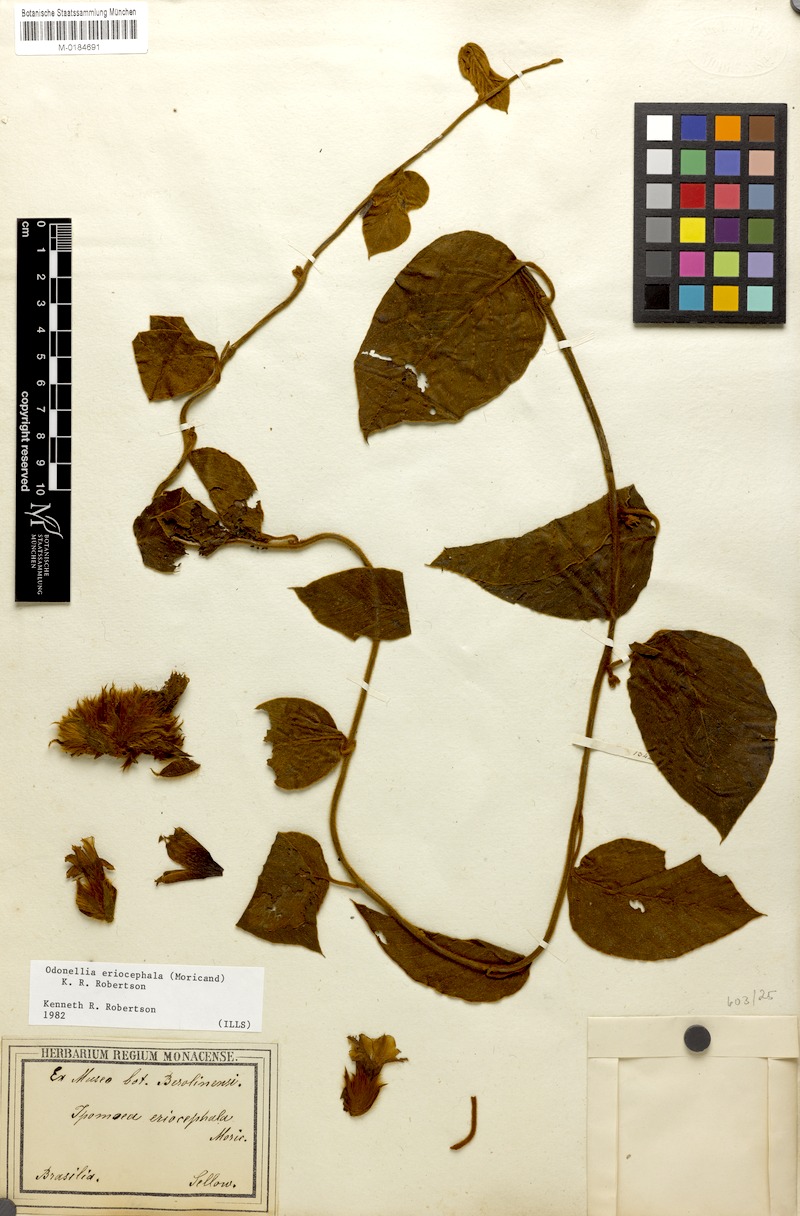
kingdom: Plantae
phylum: Tracheophyta
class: Magnoliopsida
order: Solanales
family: Convolvulaceae
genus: Odonellia
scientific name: Odonellia eriocephala
